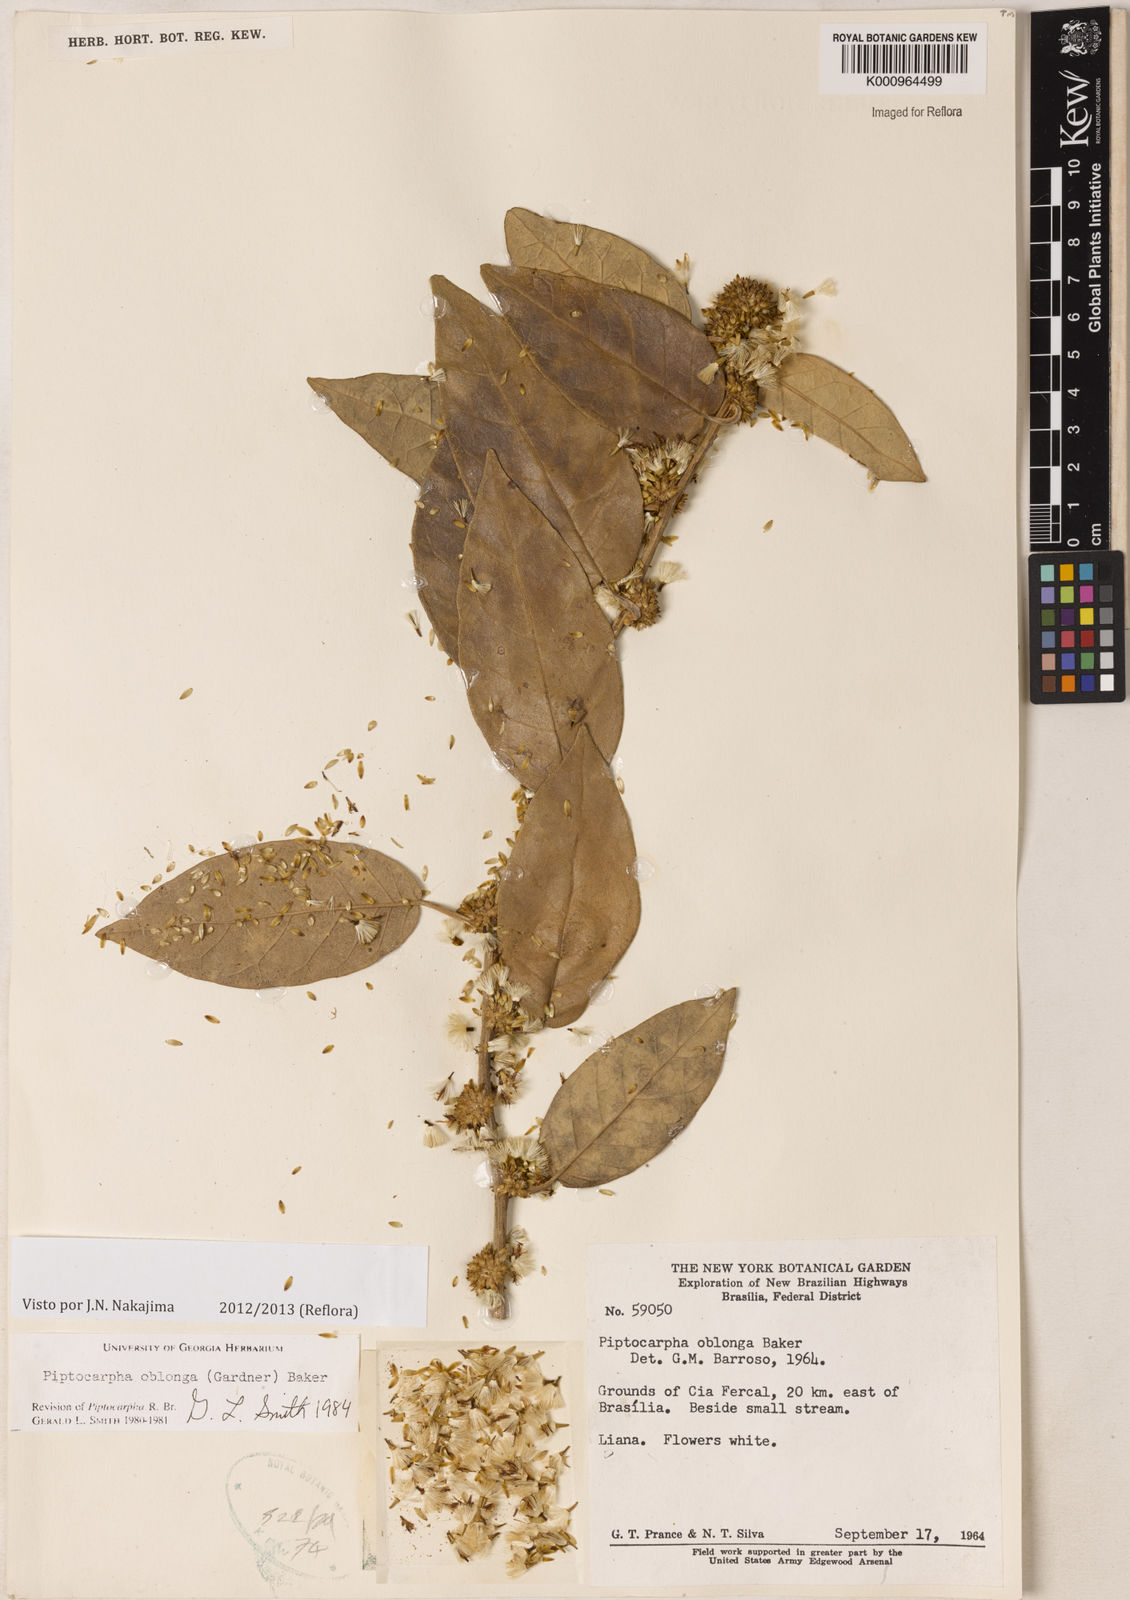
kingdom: Plantae
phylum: Tracheophyta
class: Magnoliopsida
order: Asterales
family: Asteraceae
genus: Piptocarpha
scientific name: Piptocarpha oblonga
